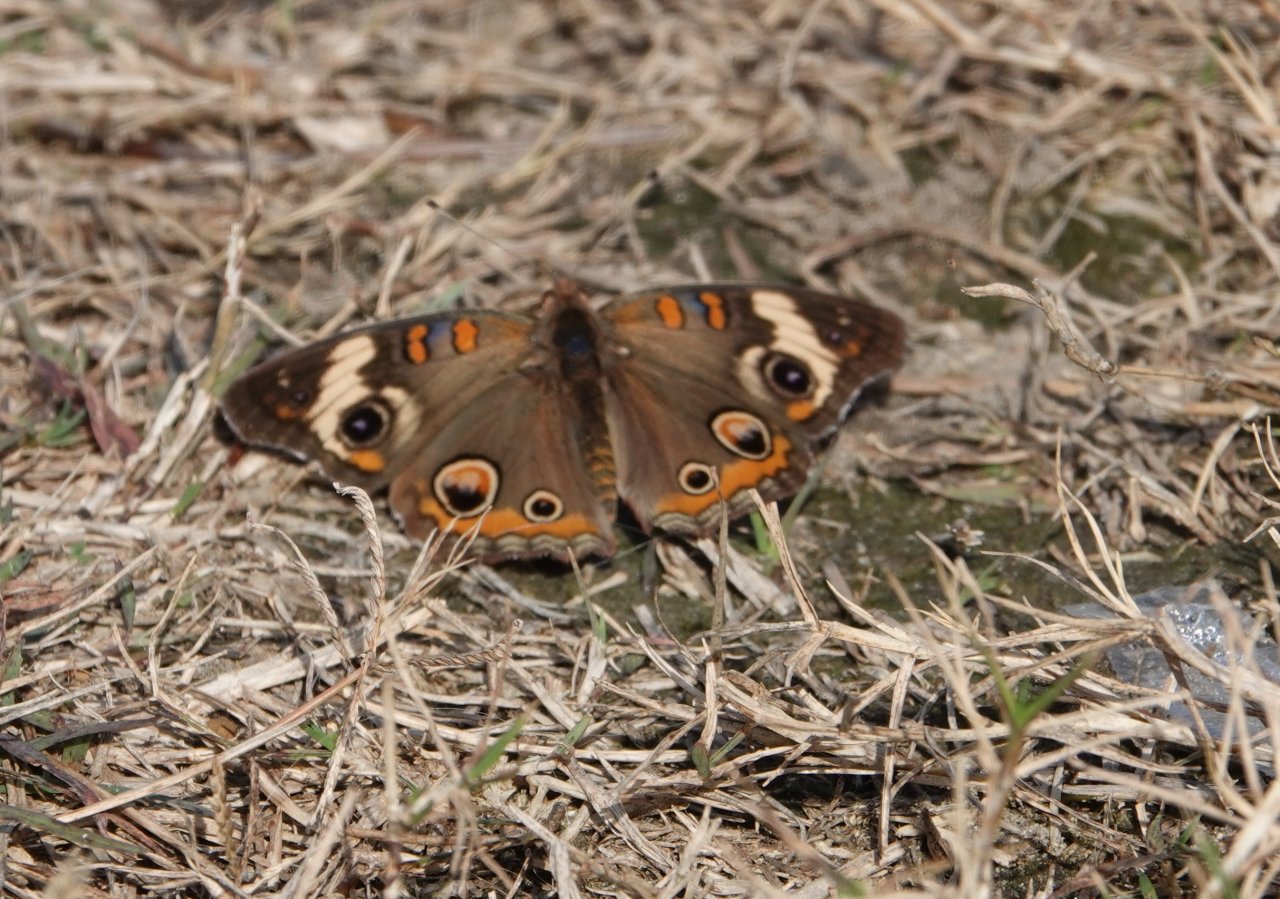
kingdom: Animalia
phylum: Arthropoda
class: Insecta
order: Lepidoptera
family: Nymphalidae
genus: Junonia
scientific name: Junonia coenia
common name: Common Buckeye
